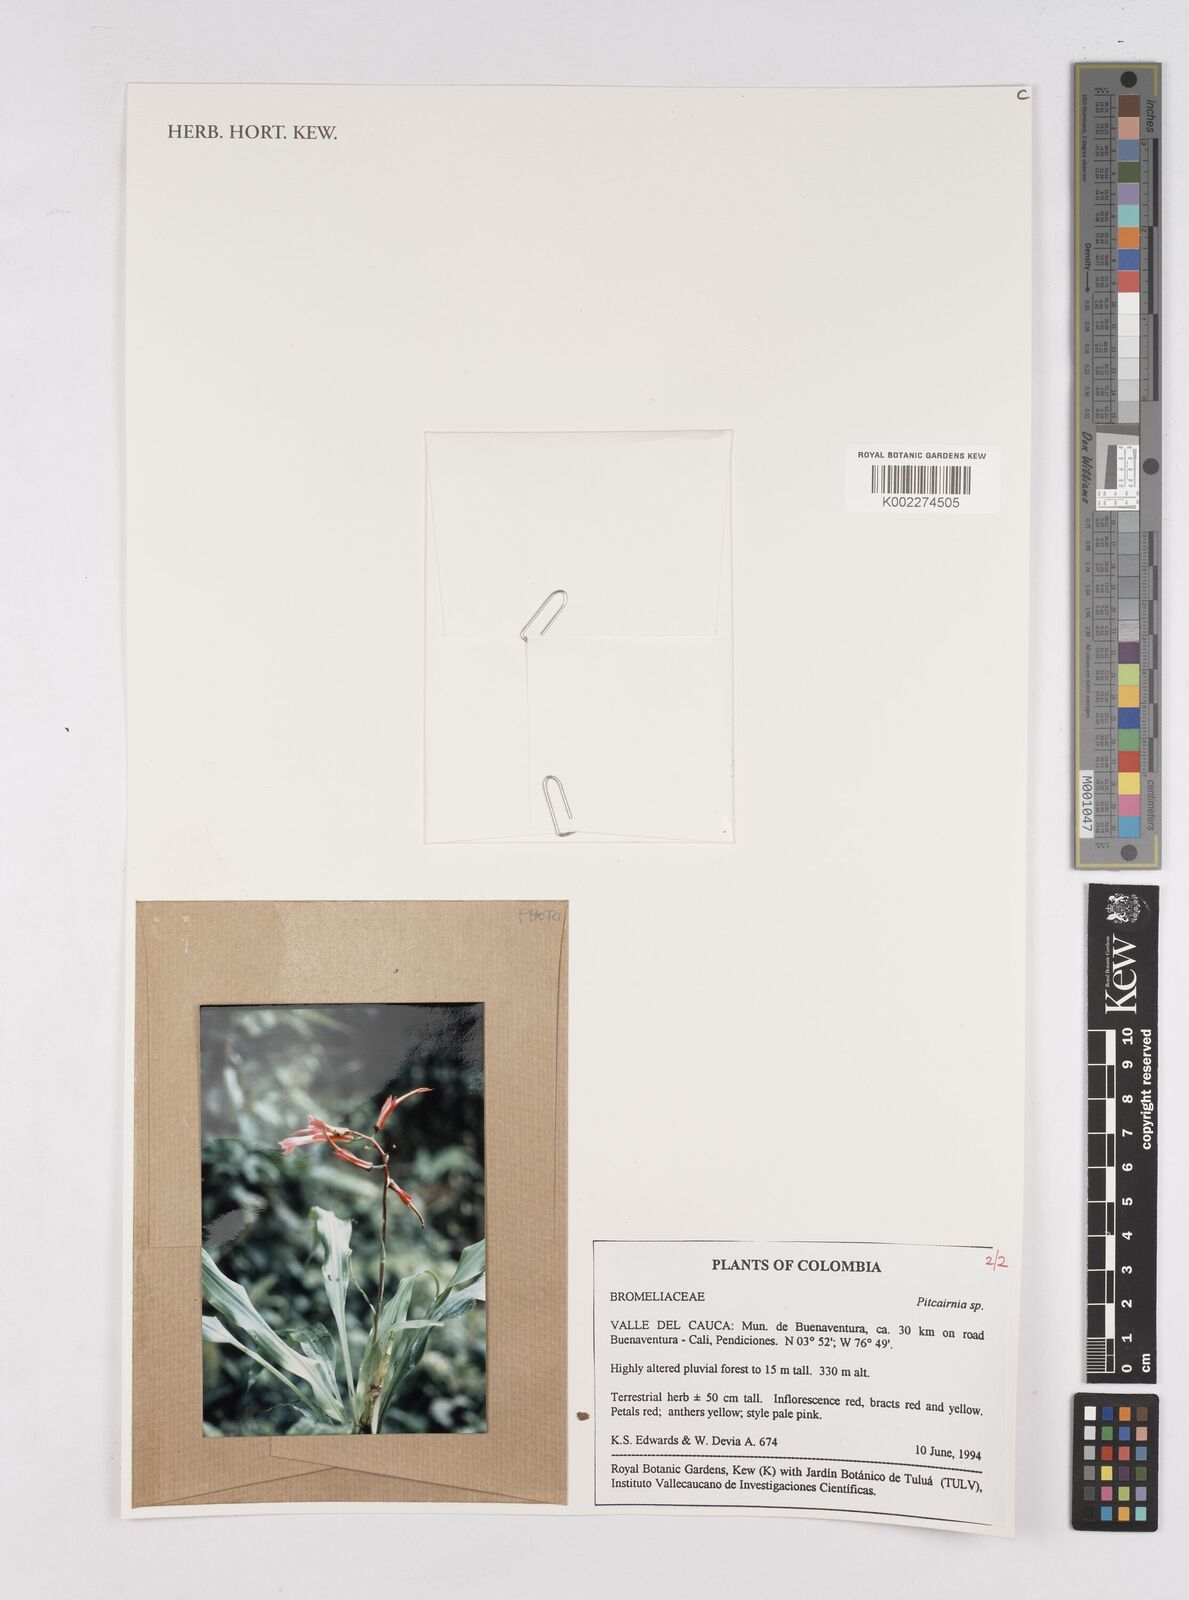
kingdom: Plantae
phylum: Tracheophyta
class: Liliopsida
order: Poales
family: Bromeliaceae
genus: Pitcairnia
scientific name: Pitcairnia
